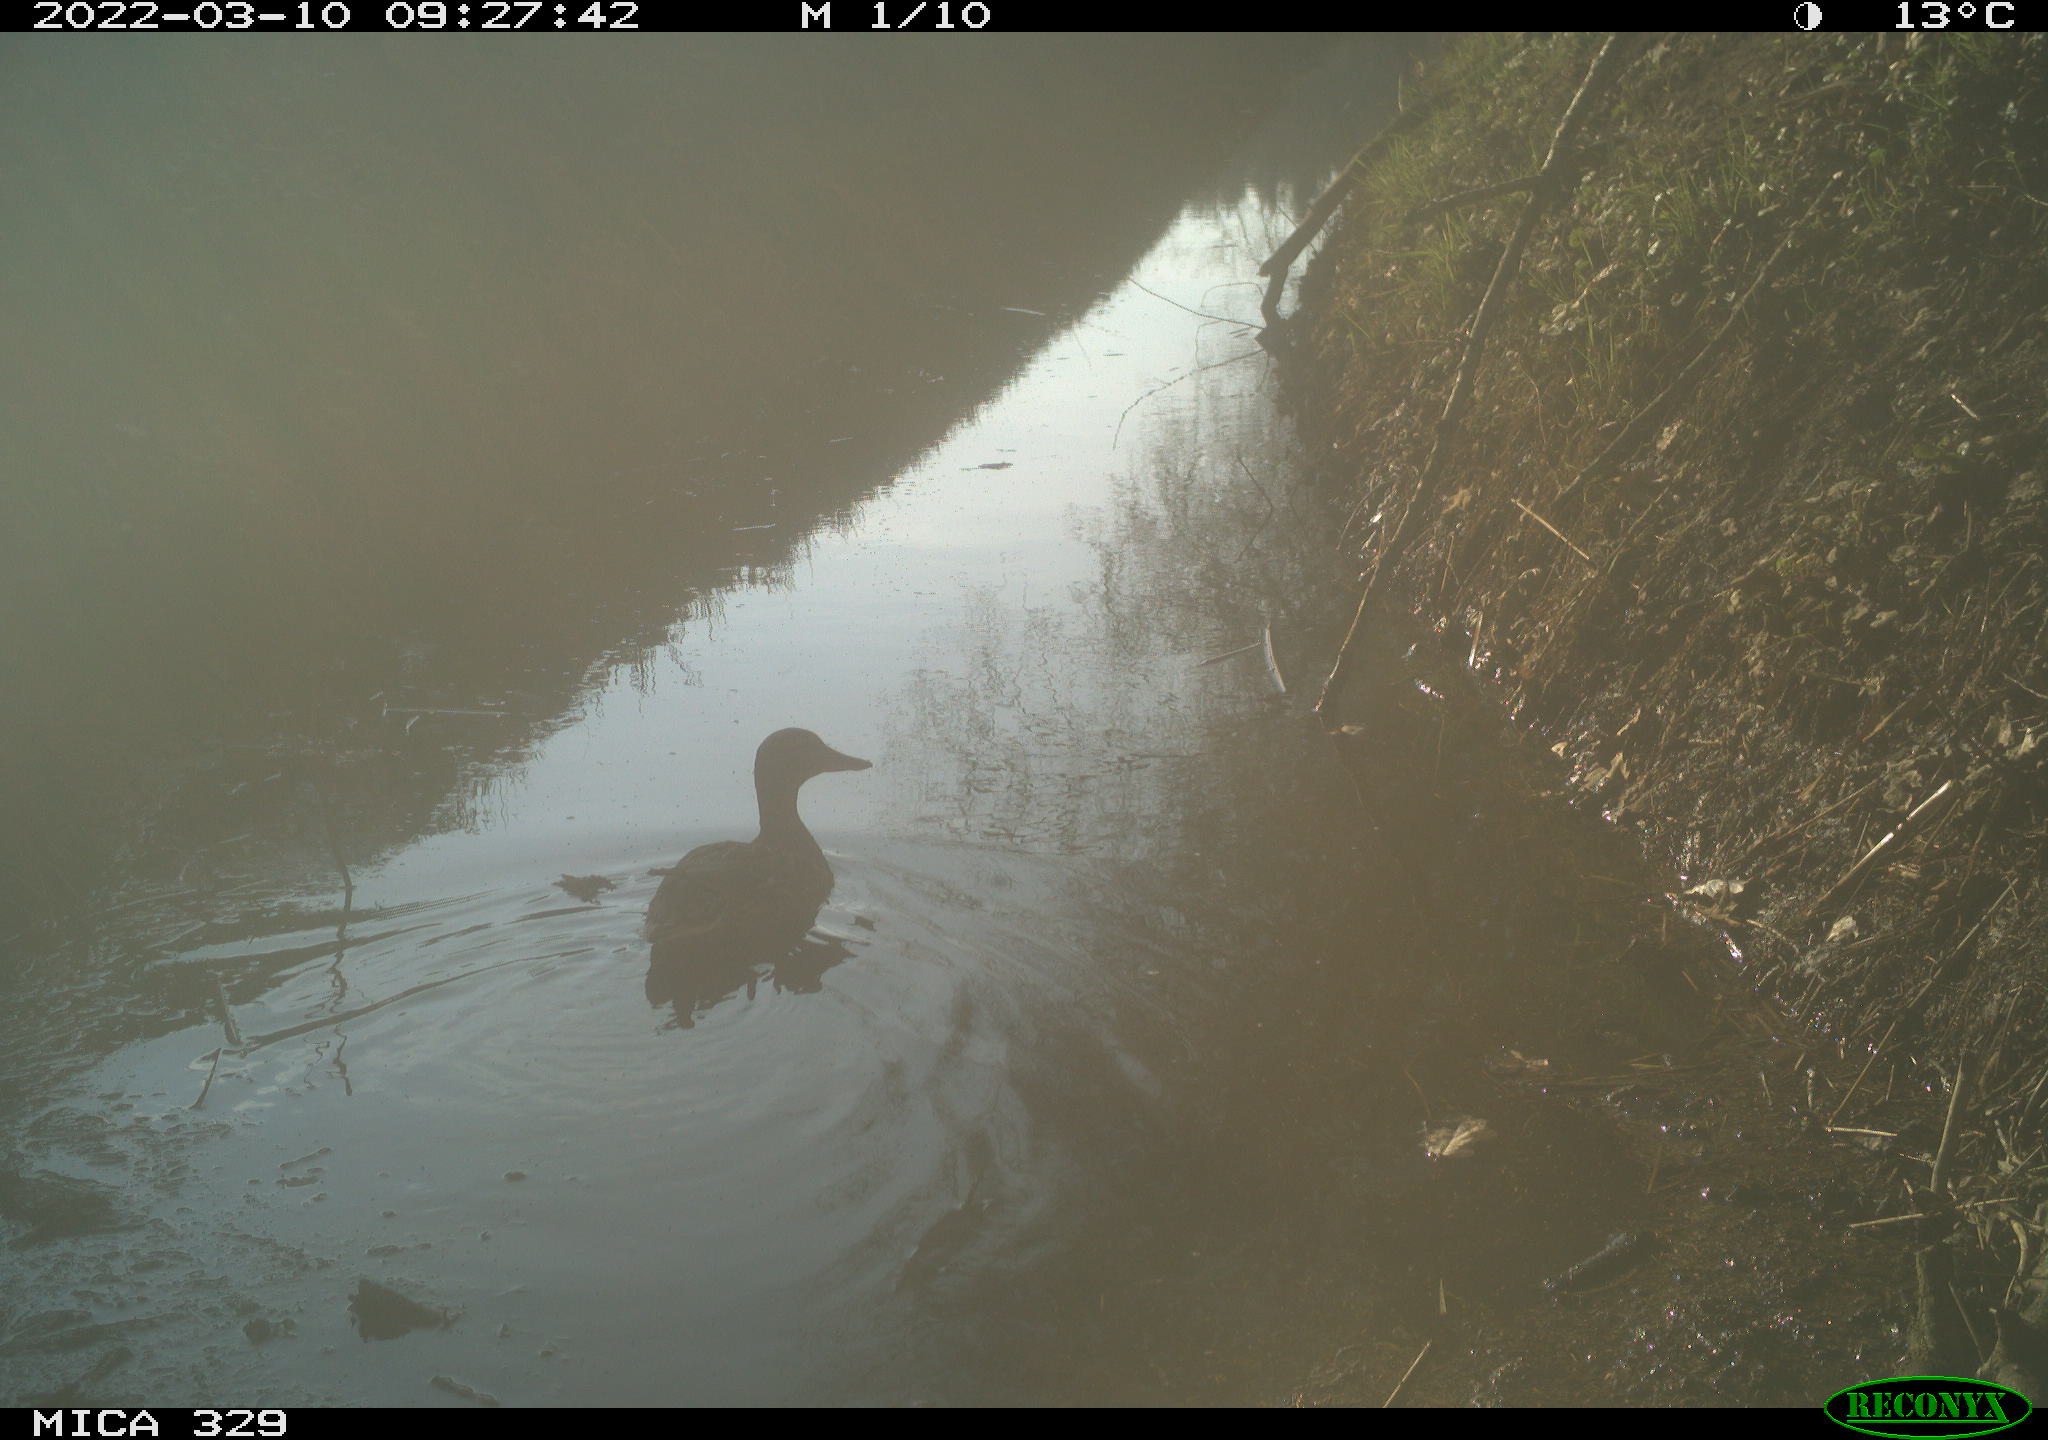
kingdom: Animalia
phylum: Chordata
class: Aves
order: Anseriformes
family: Anatidae
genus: Anas
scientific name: Anas platyrhynchos
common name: Mallard
